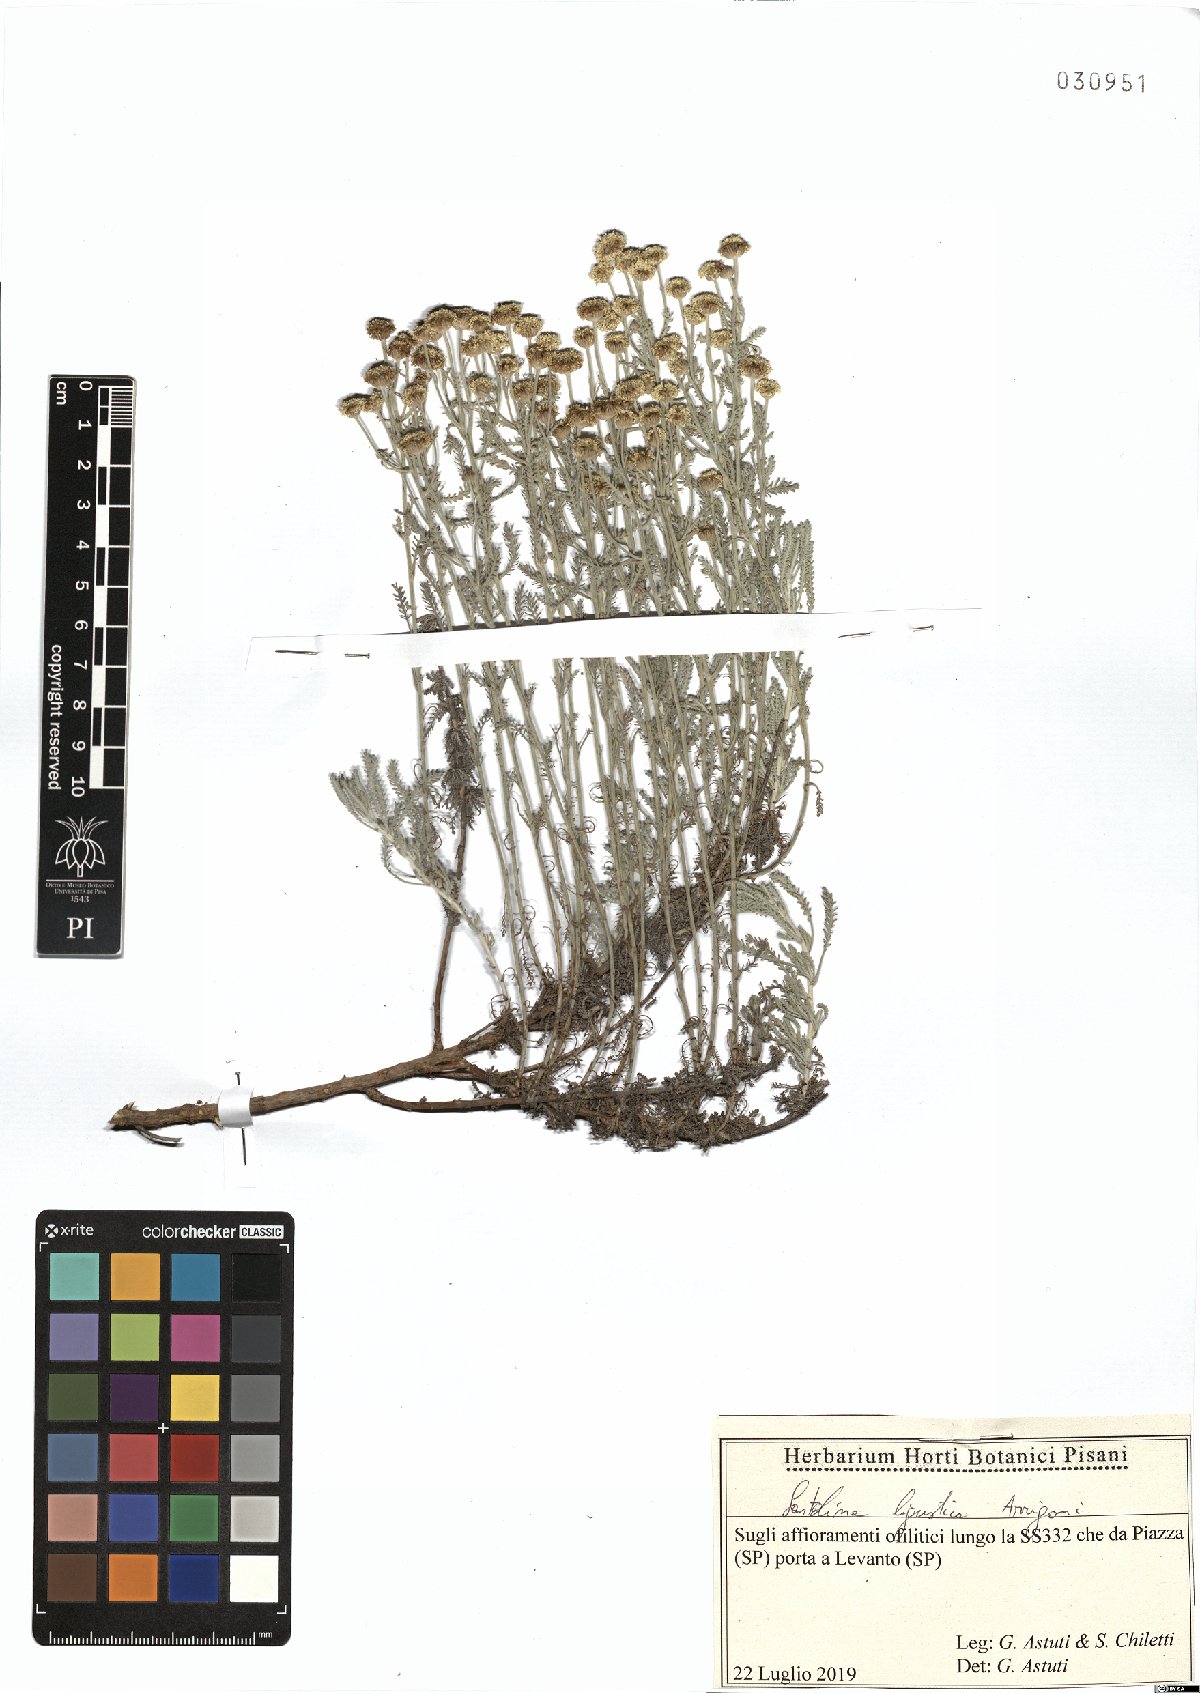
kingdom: Plantae
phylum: Tracheophyta
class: Magnoliopsida
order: Asterales
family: Asteraceae
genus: Santolina
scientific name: Santolina ligustica
